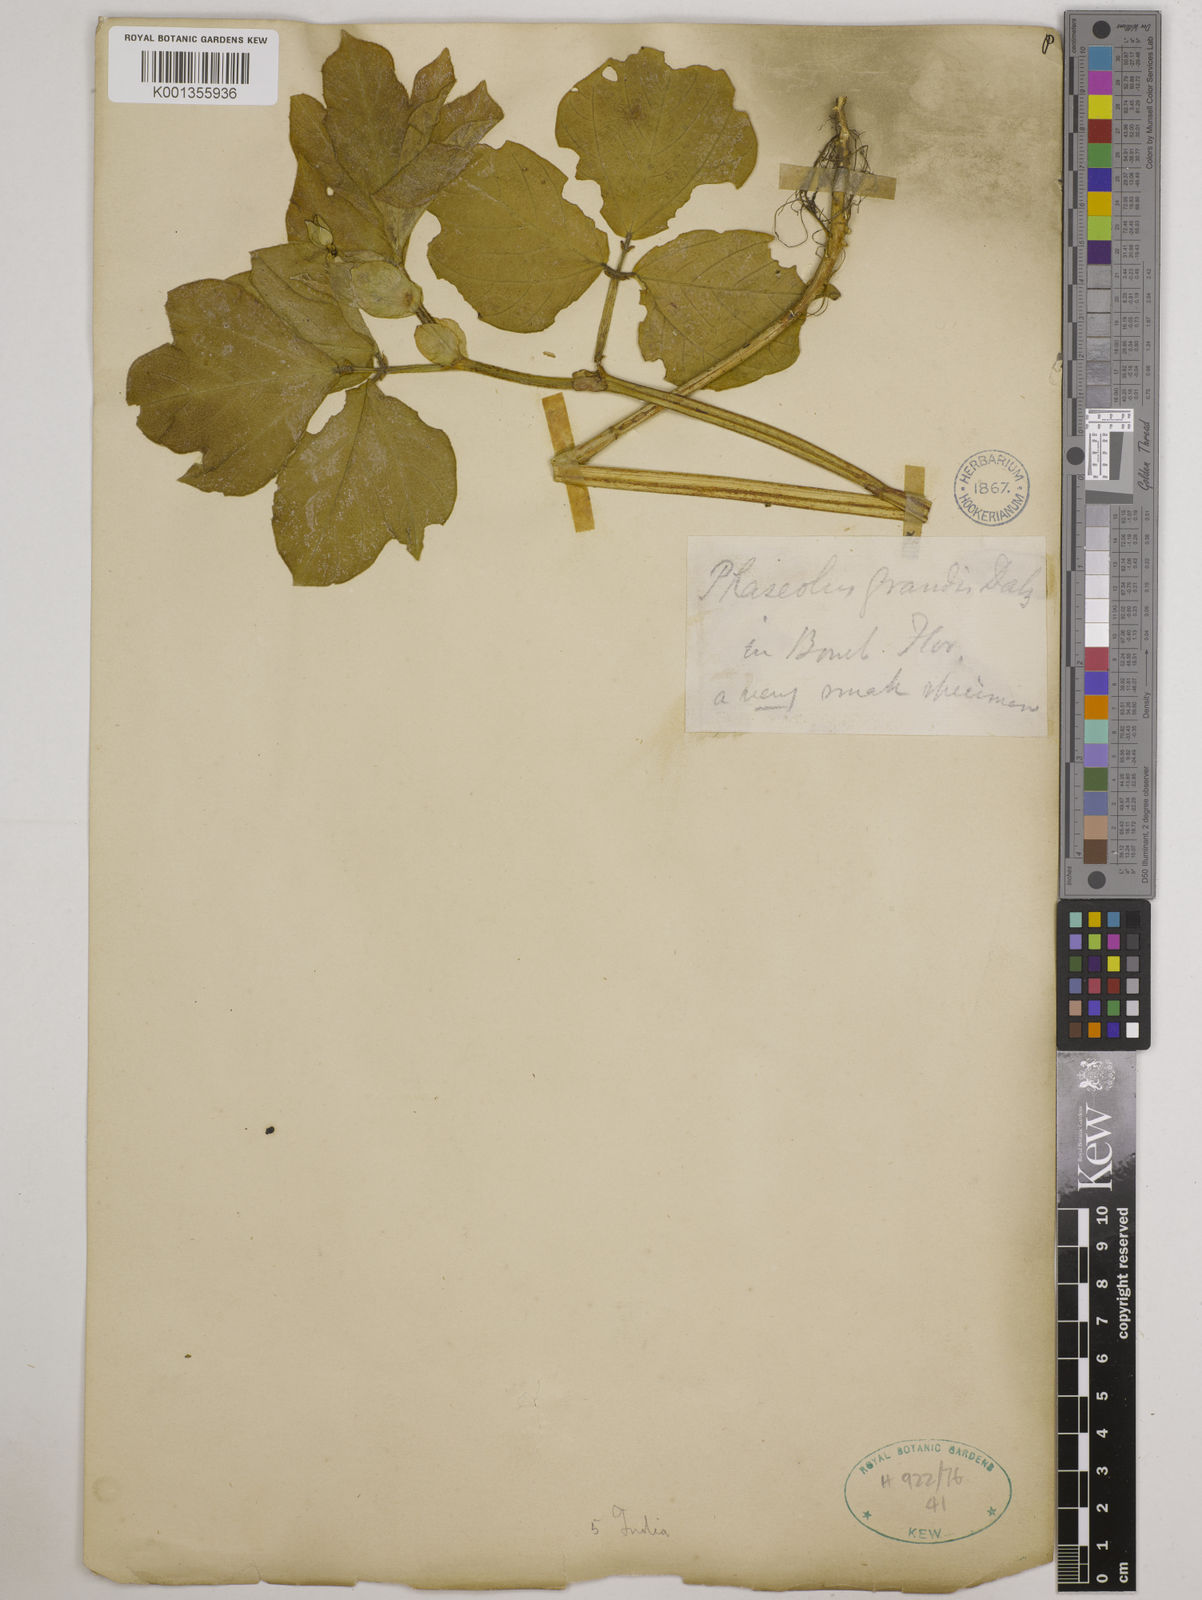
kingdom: Plantae
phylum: Tracheophyta
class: Magnoliopsida
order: Fabales
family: Fabaceae
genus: Vigna
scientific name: Vigna khandalensis
